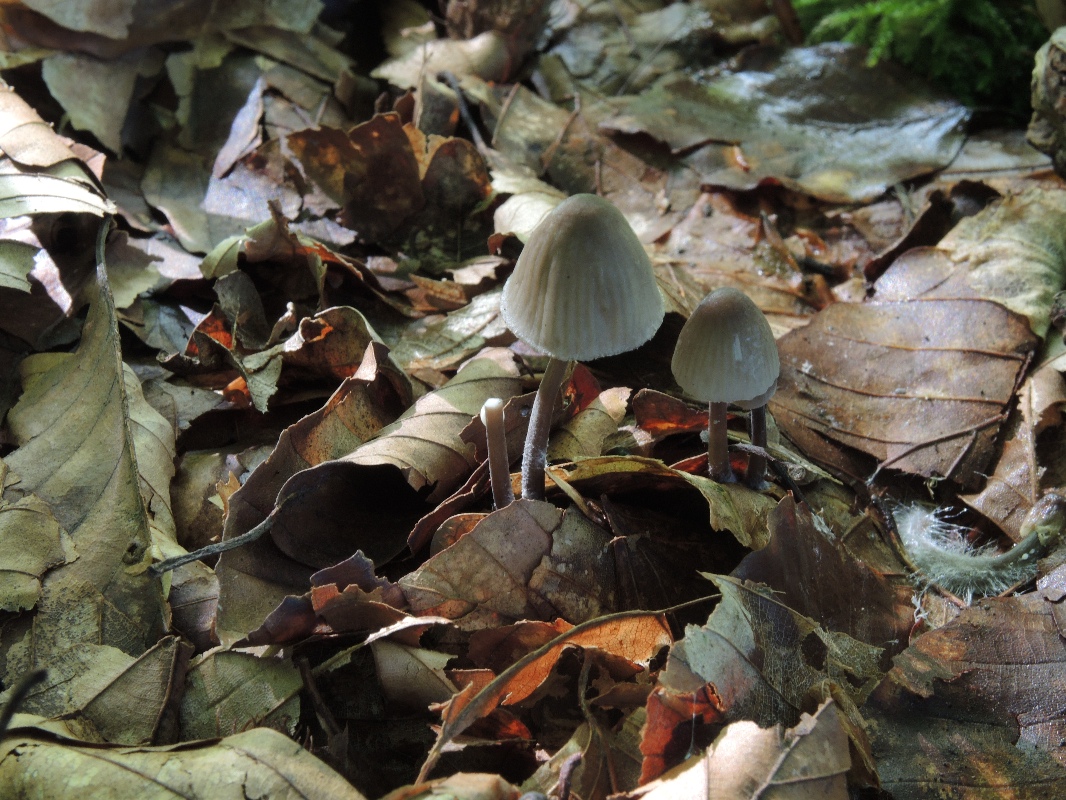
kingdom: Fungi
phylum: Basidiomycota
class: Agaricomycetes
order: Agaricales
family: Mycenaceae
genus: Mycena
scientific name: Mycena galopus
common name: hvidmælket huesvamp
